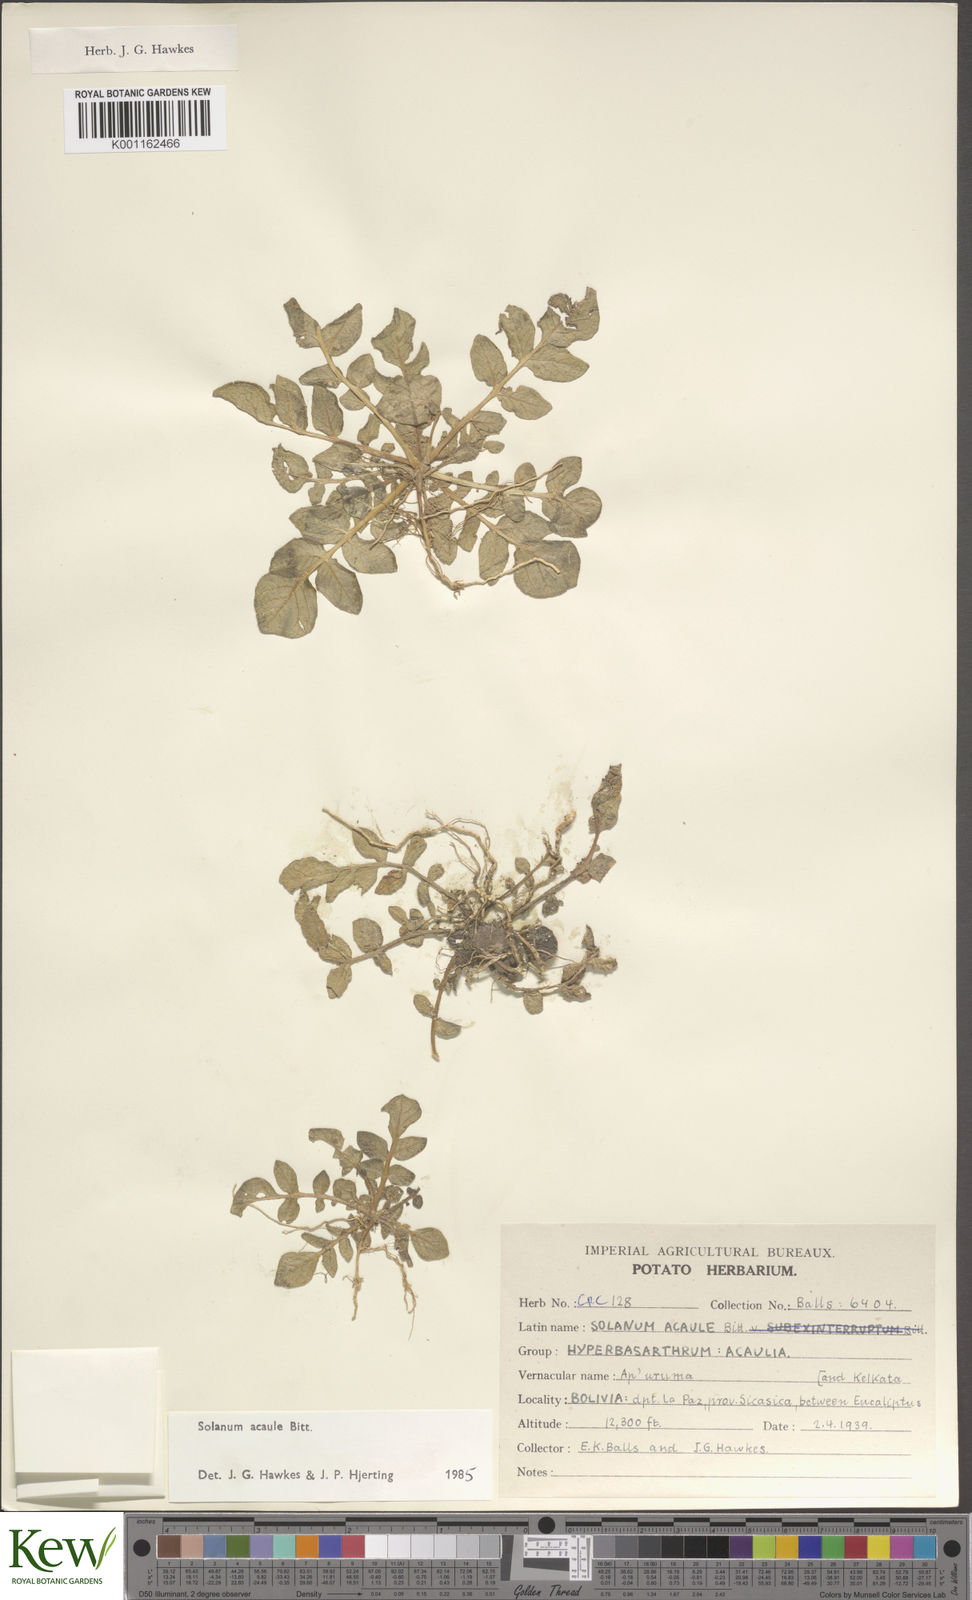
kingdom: Plantae
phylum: Tracheophyta
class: Magnoliopsida
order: Solanales
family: Solanaceae
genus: Solanum
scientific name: Solanum acaule
